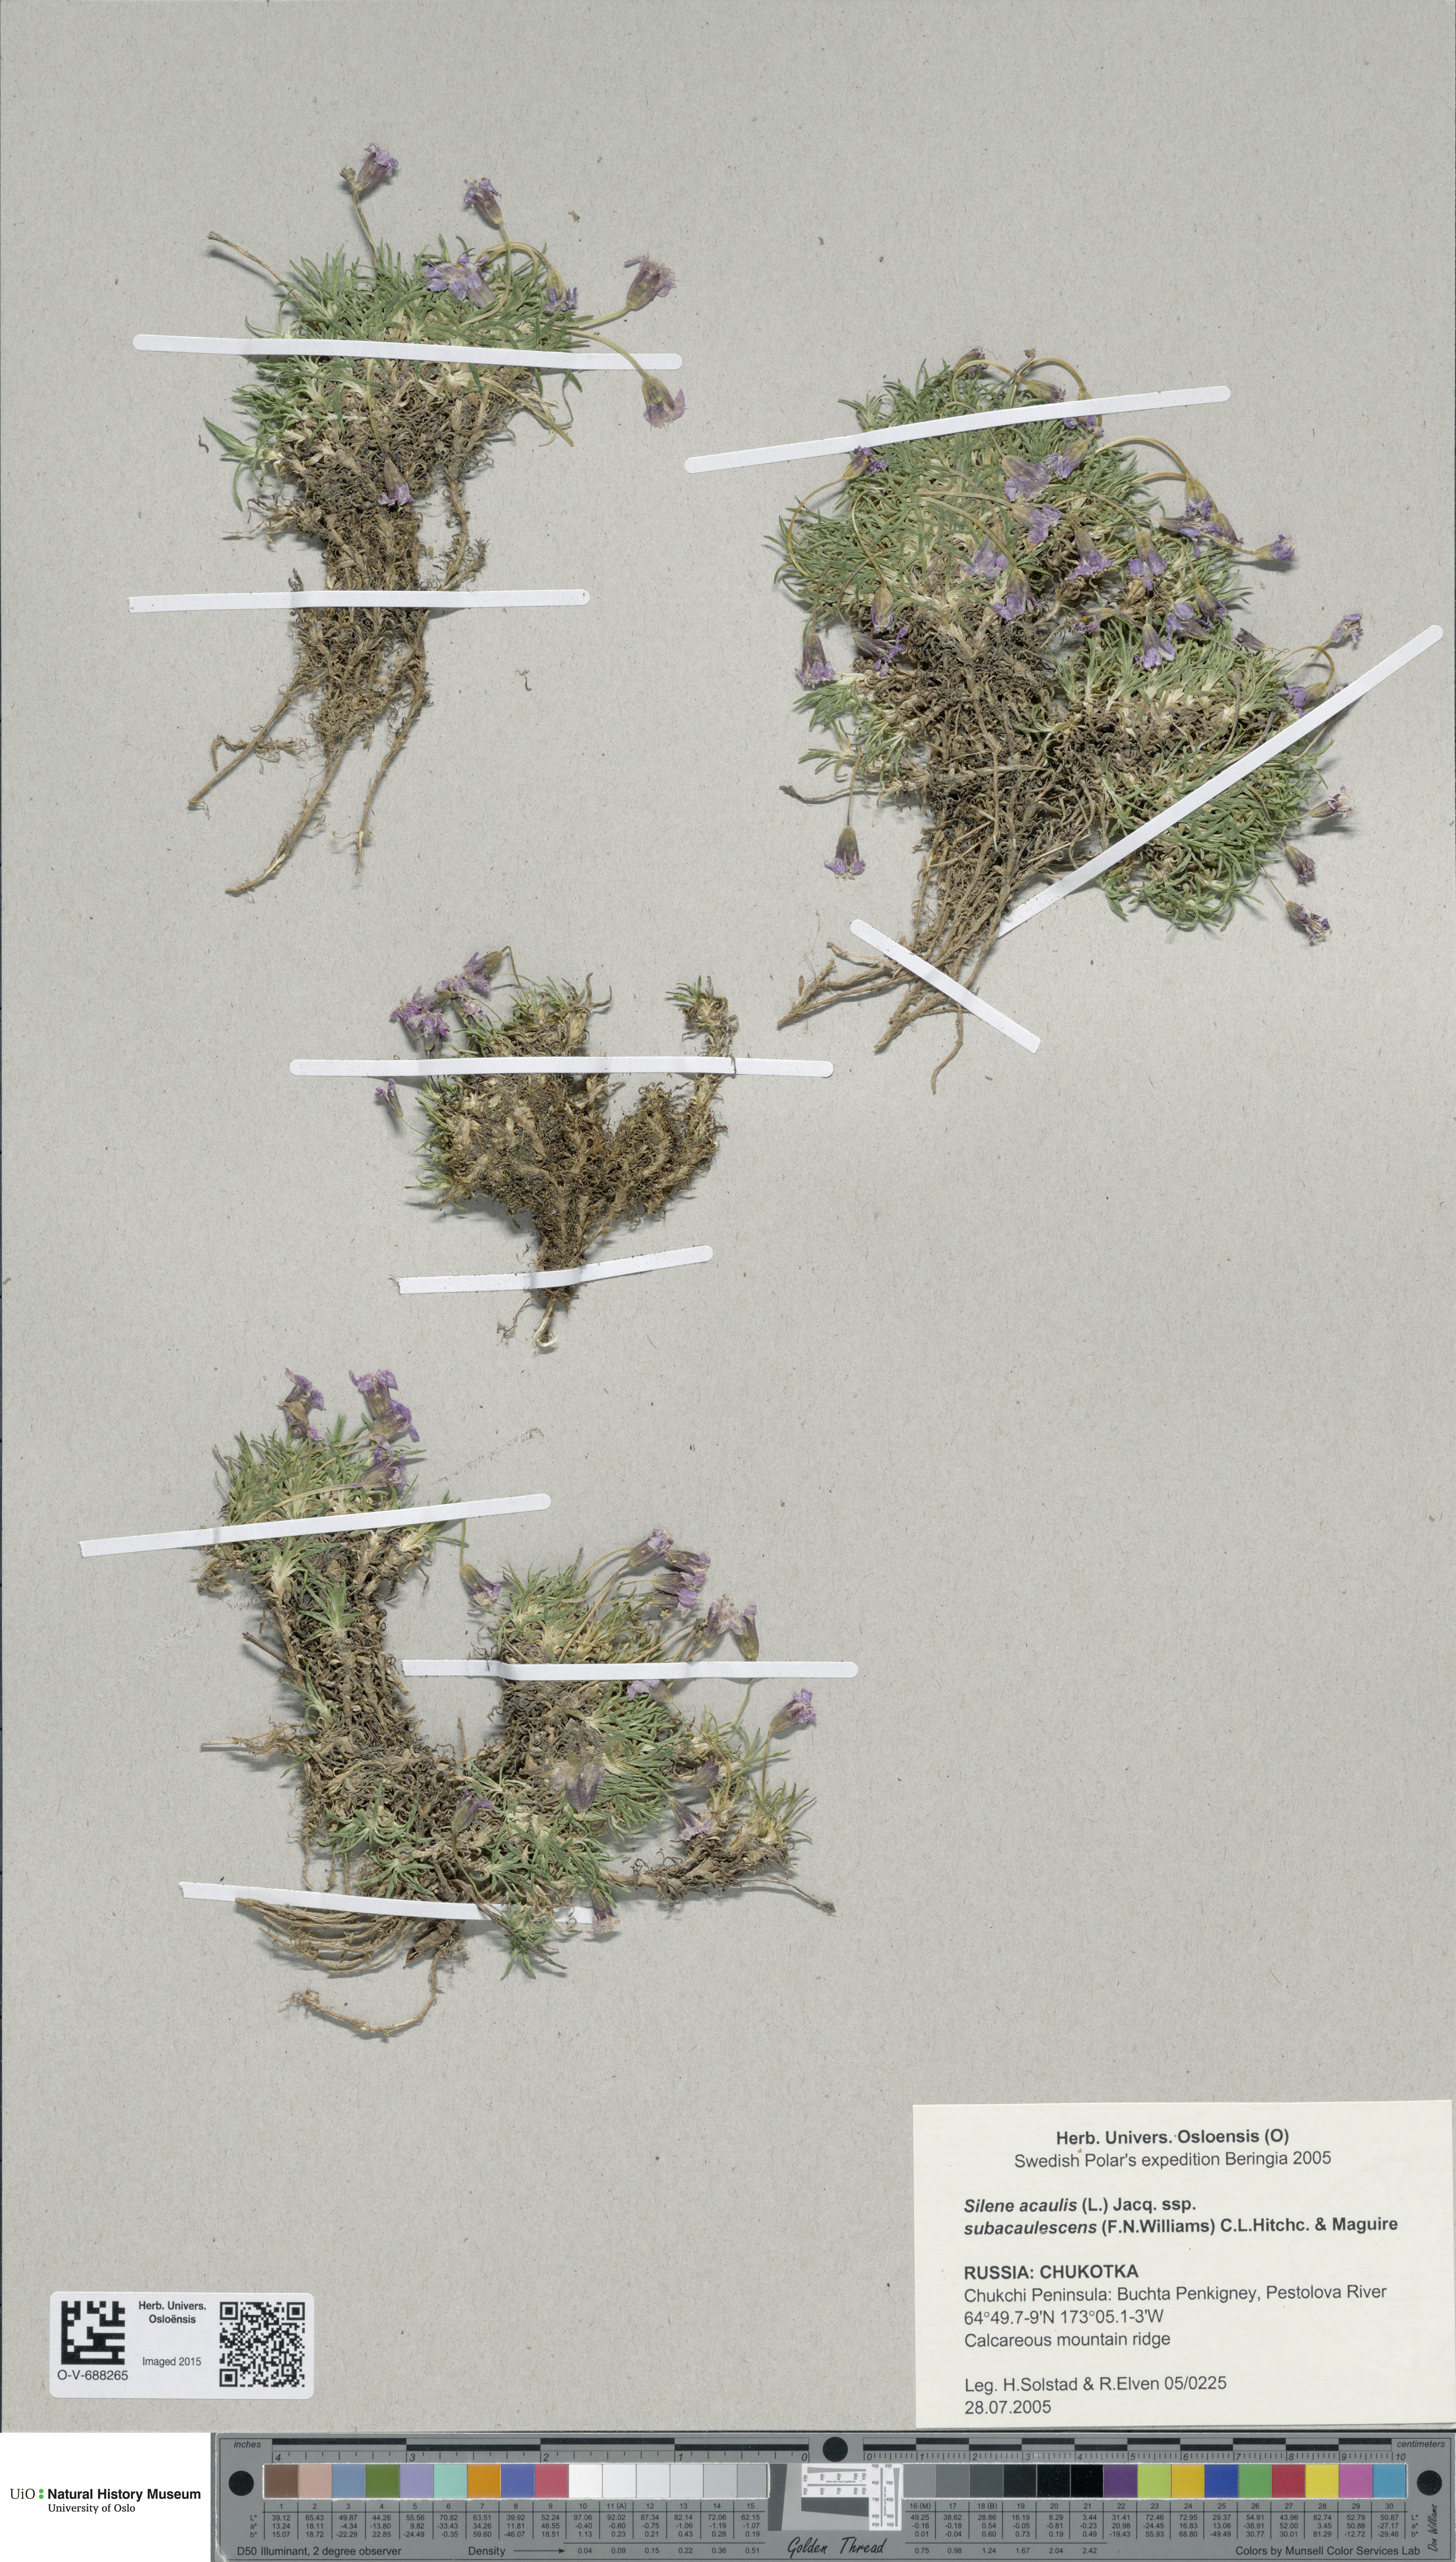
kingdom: Plantae
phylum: Tracheophyta
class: Magnoliopsida
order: Caryophyllales
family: Caryophyllaceae
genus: Silene
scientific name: Silene acaulis
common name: Moss campion
